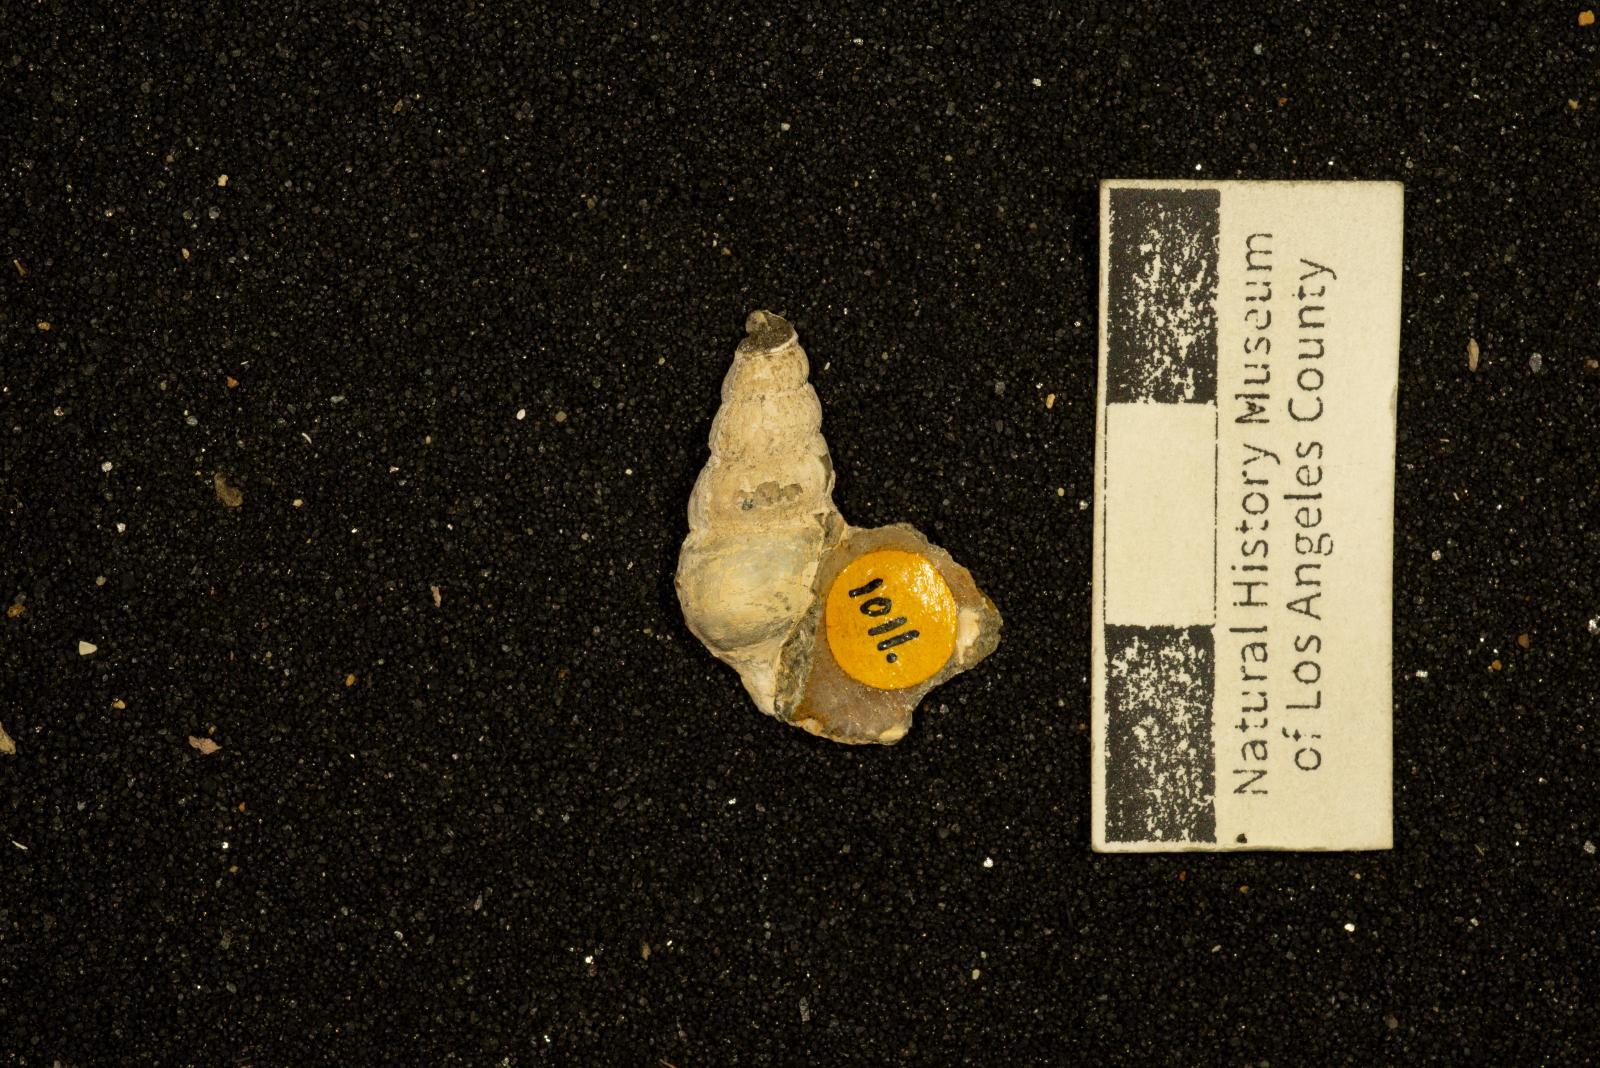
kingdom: Animalia
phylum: Mollusca
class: Gastropoda
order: Littorinimorpha
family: Aporrhaidae
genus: Anchura
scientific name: Anchura
